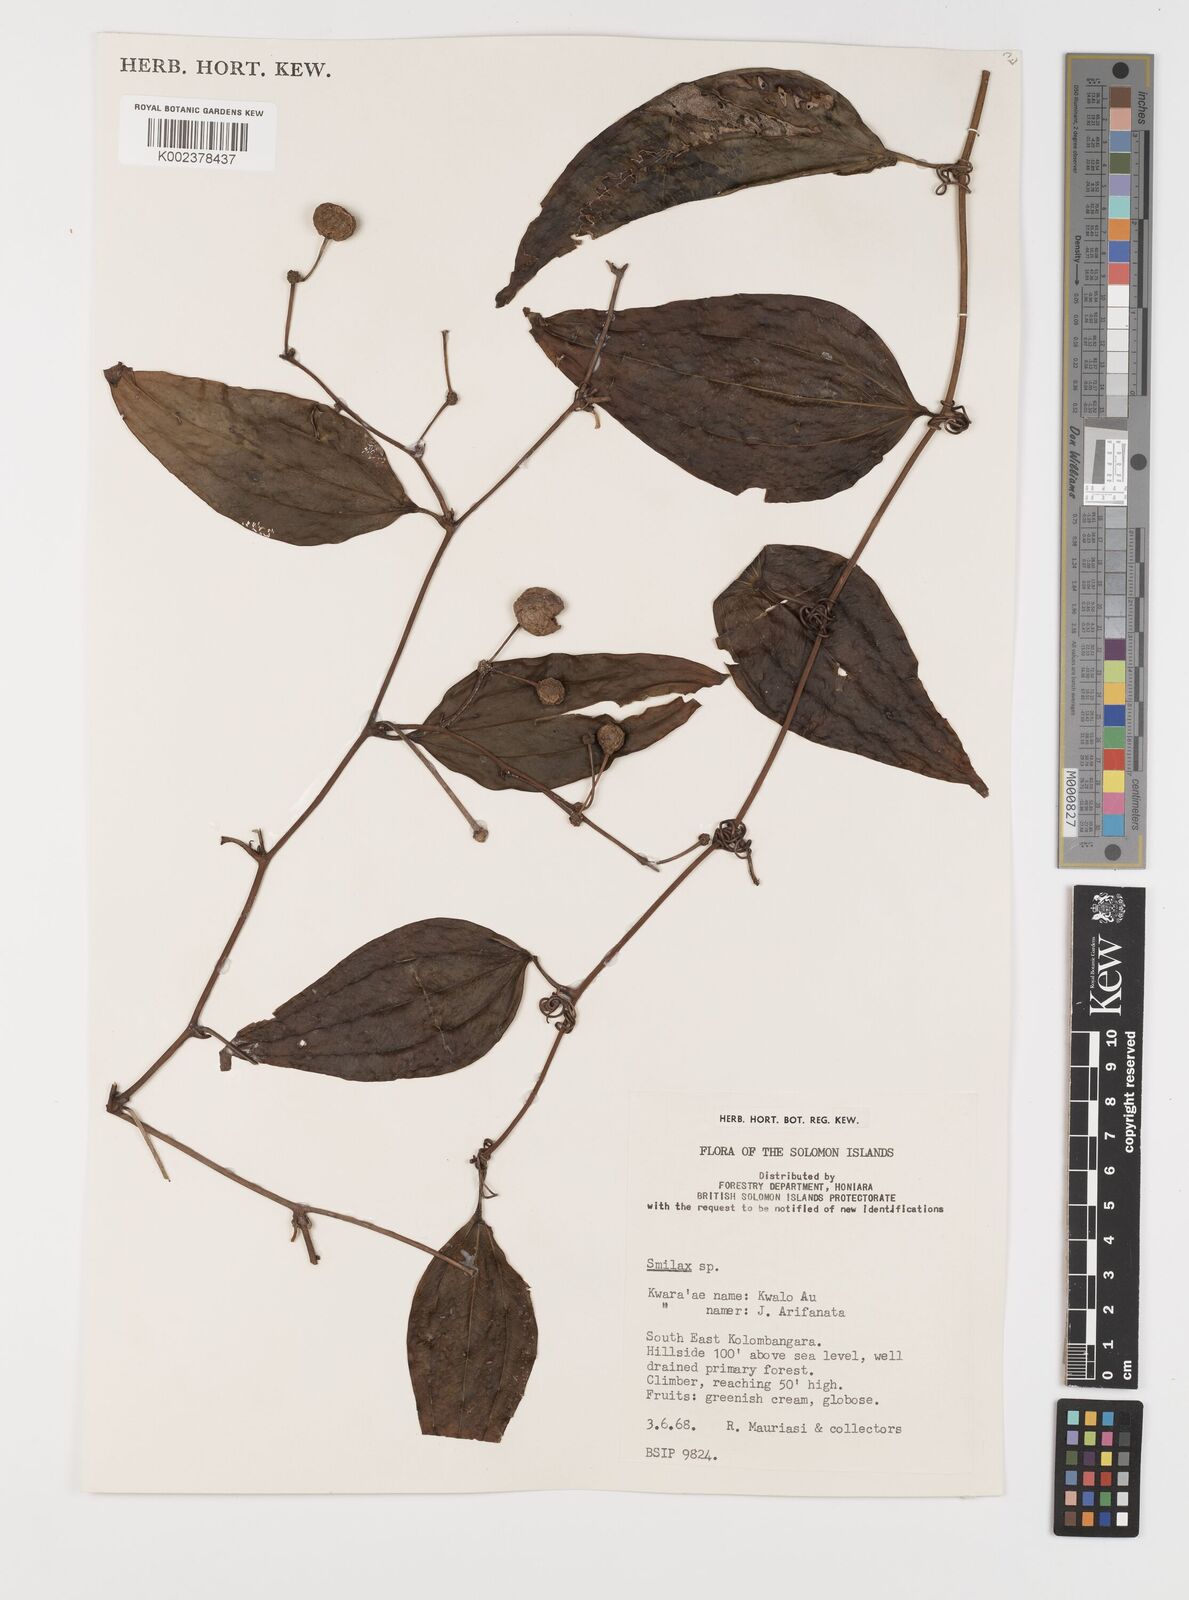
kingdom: Plantae
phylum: Tracheophyta
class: Liliopsida
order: Liliales
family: Smilacaceae
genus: Smilax
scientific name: Smilax
